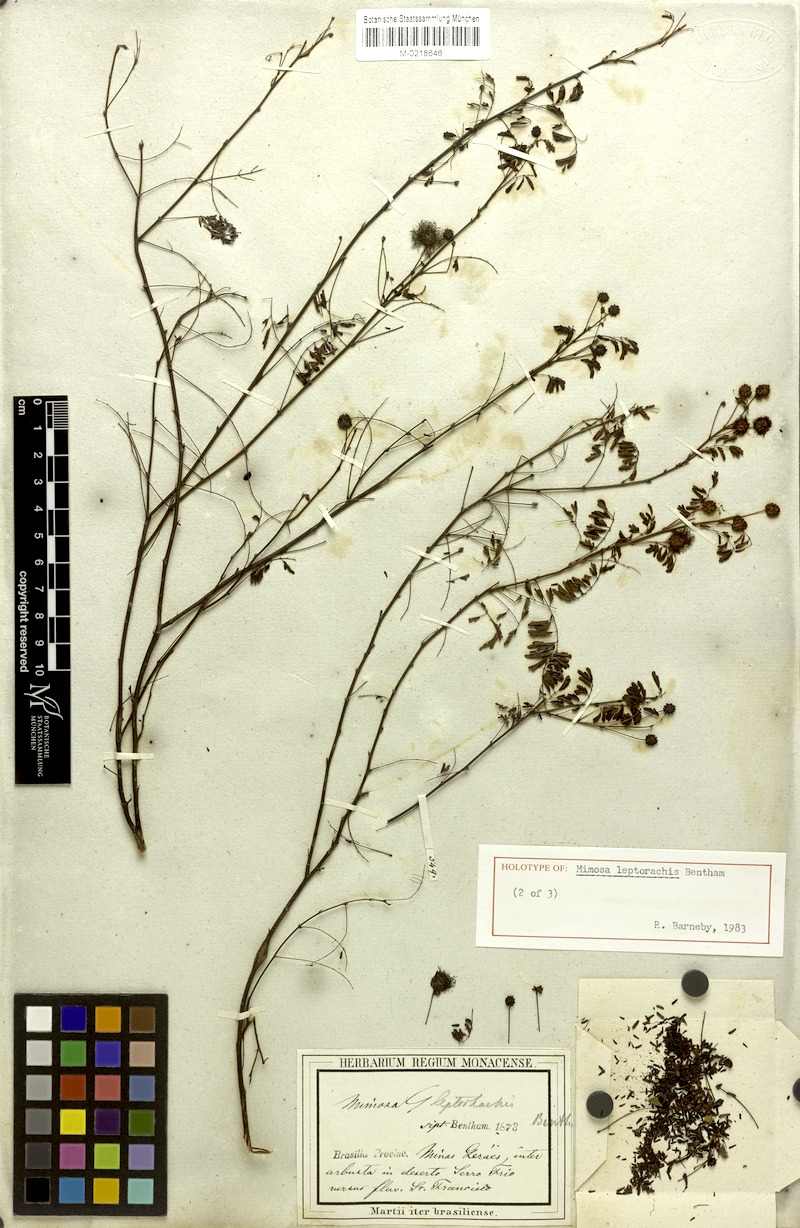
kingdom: Plantae
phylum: Tracheophyta
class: Magnoliopsida
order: Fabales
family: Fabaceae
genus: Mimosa
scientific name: Mimosa leptorhachis
